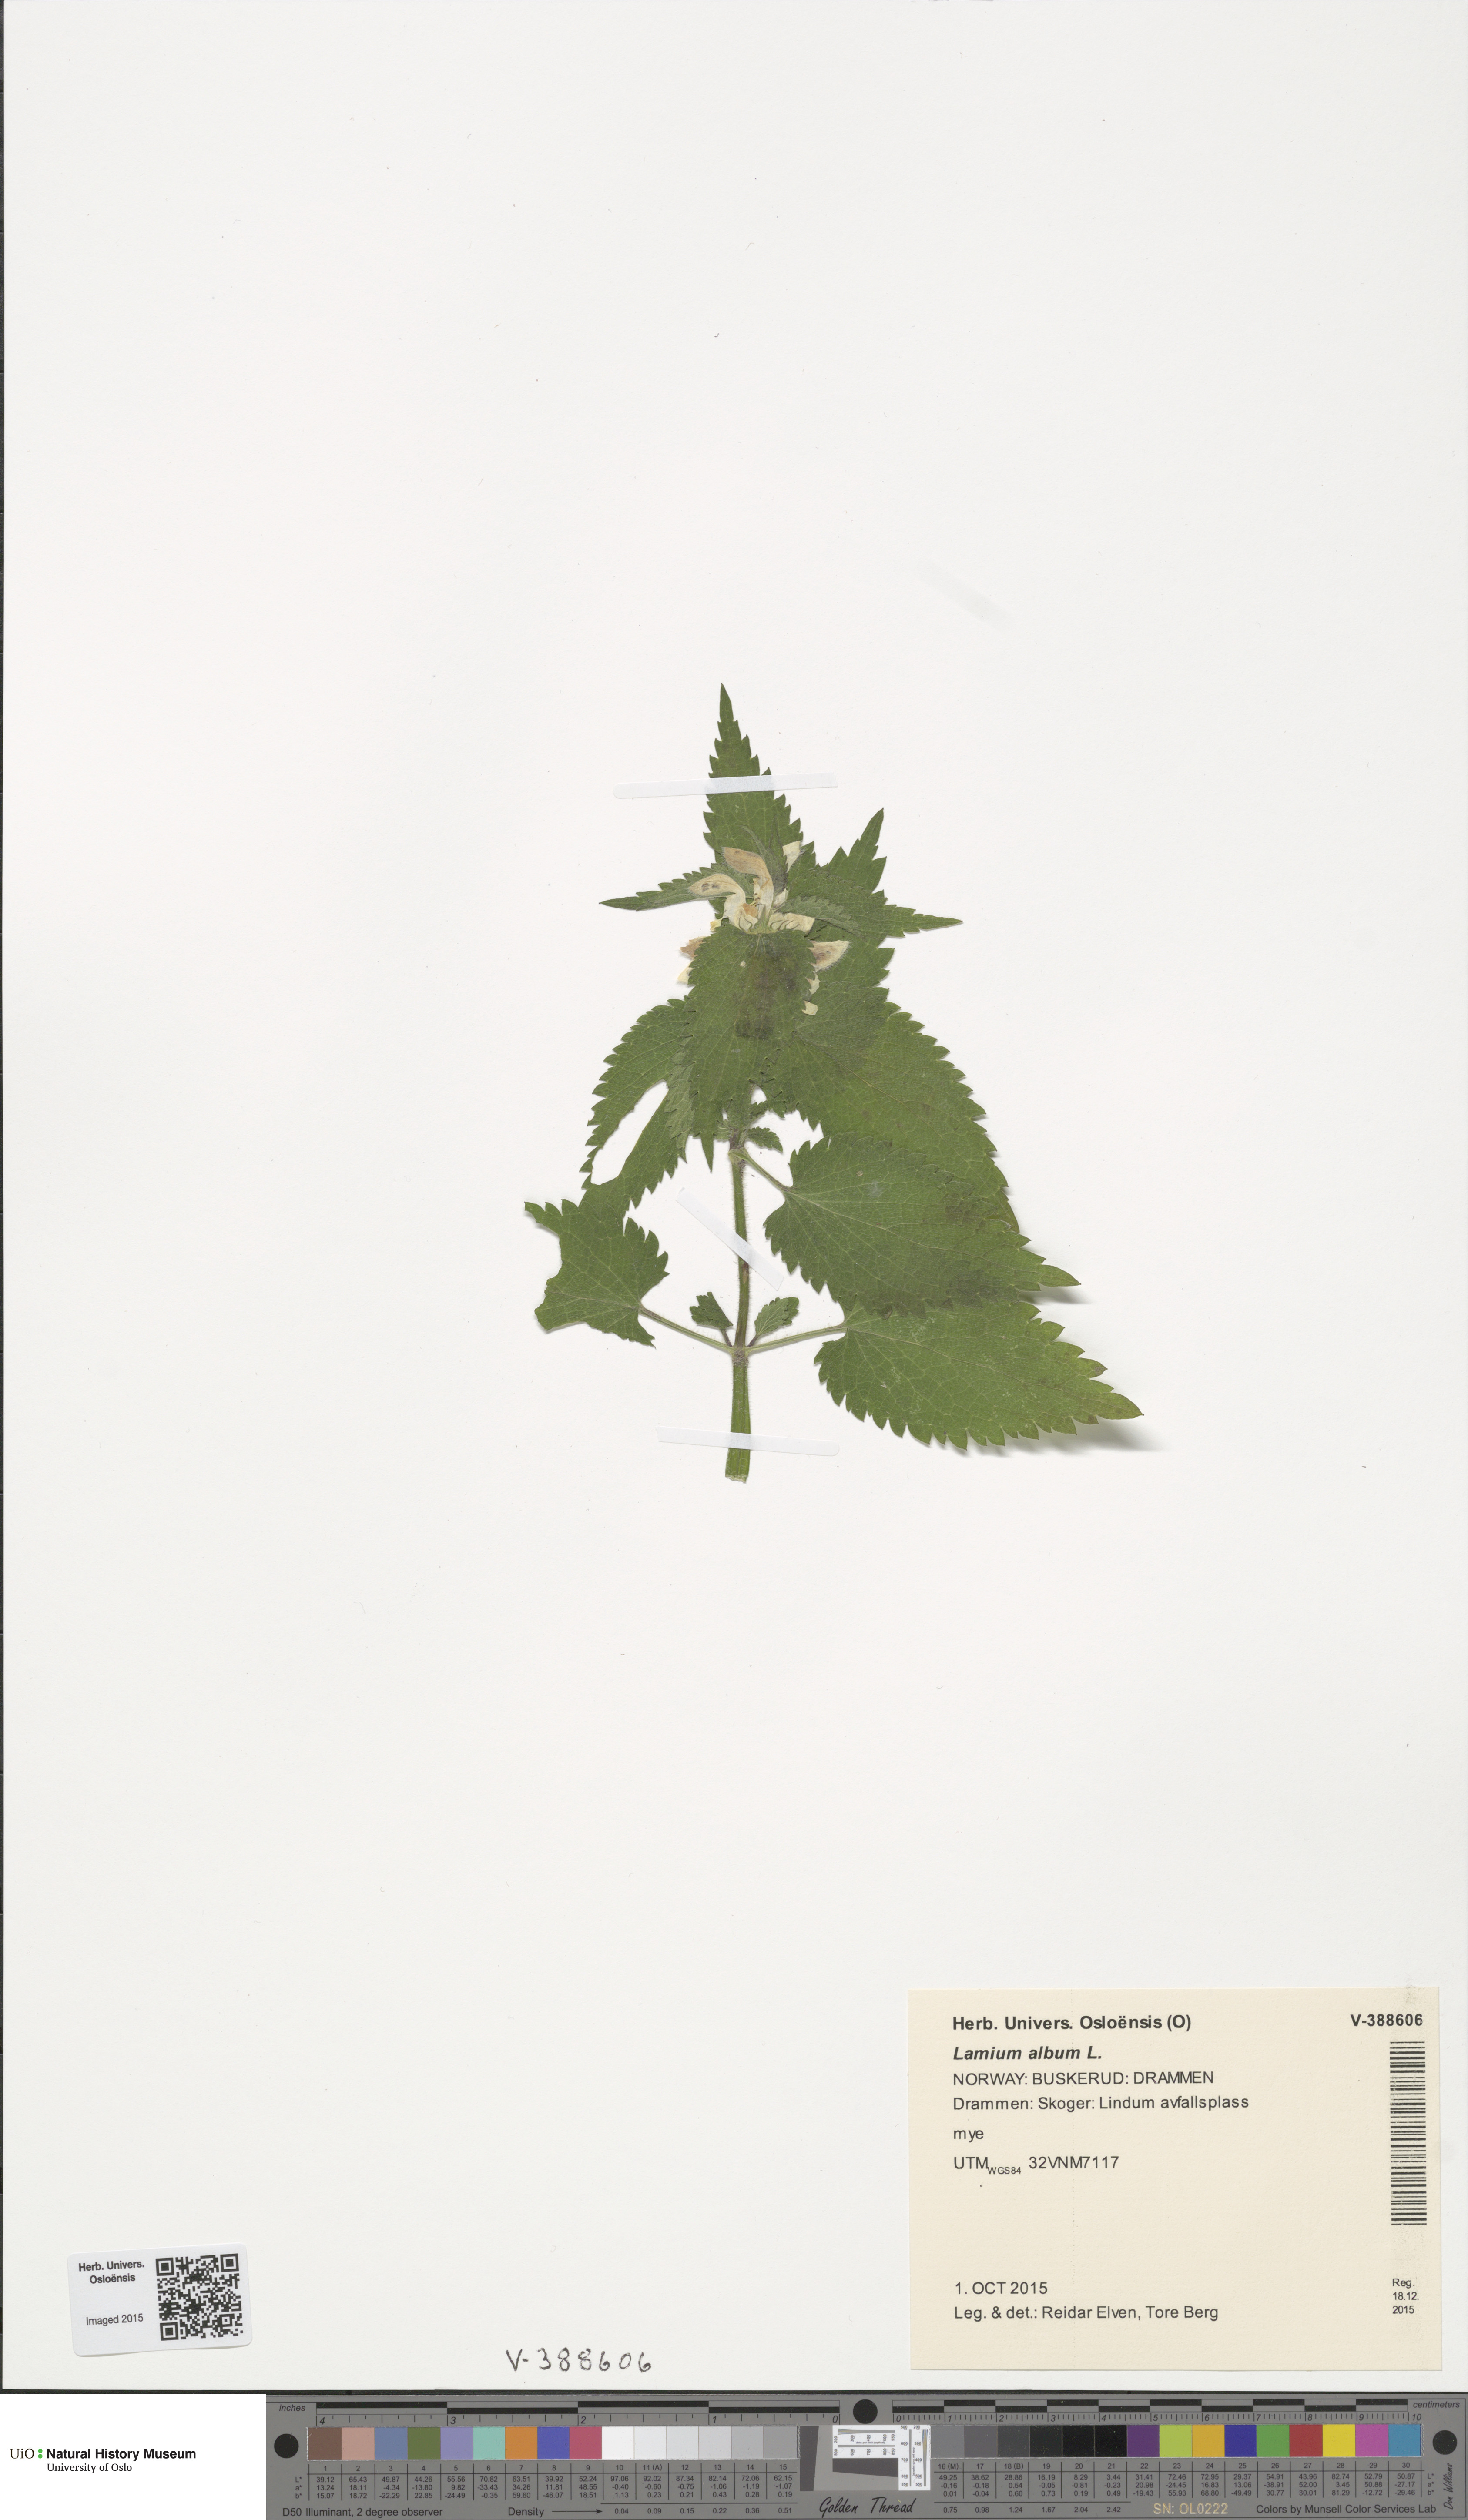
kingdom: Plantae
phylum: Tracheophyta
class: Magnoliopsida
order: Lamiales
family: Lamiaceae
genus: Lamium
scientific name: Lamium album
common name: White dead-nettle
